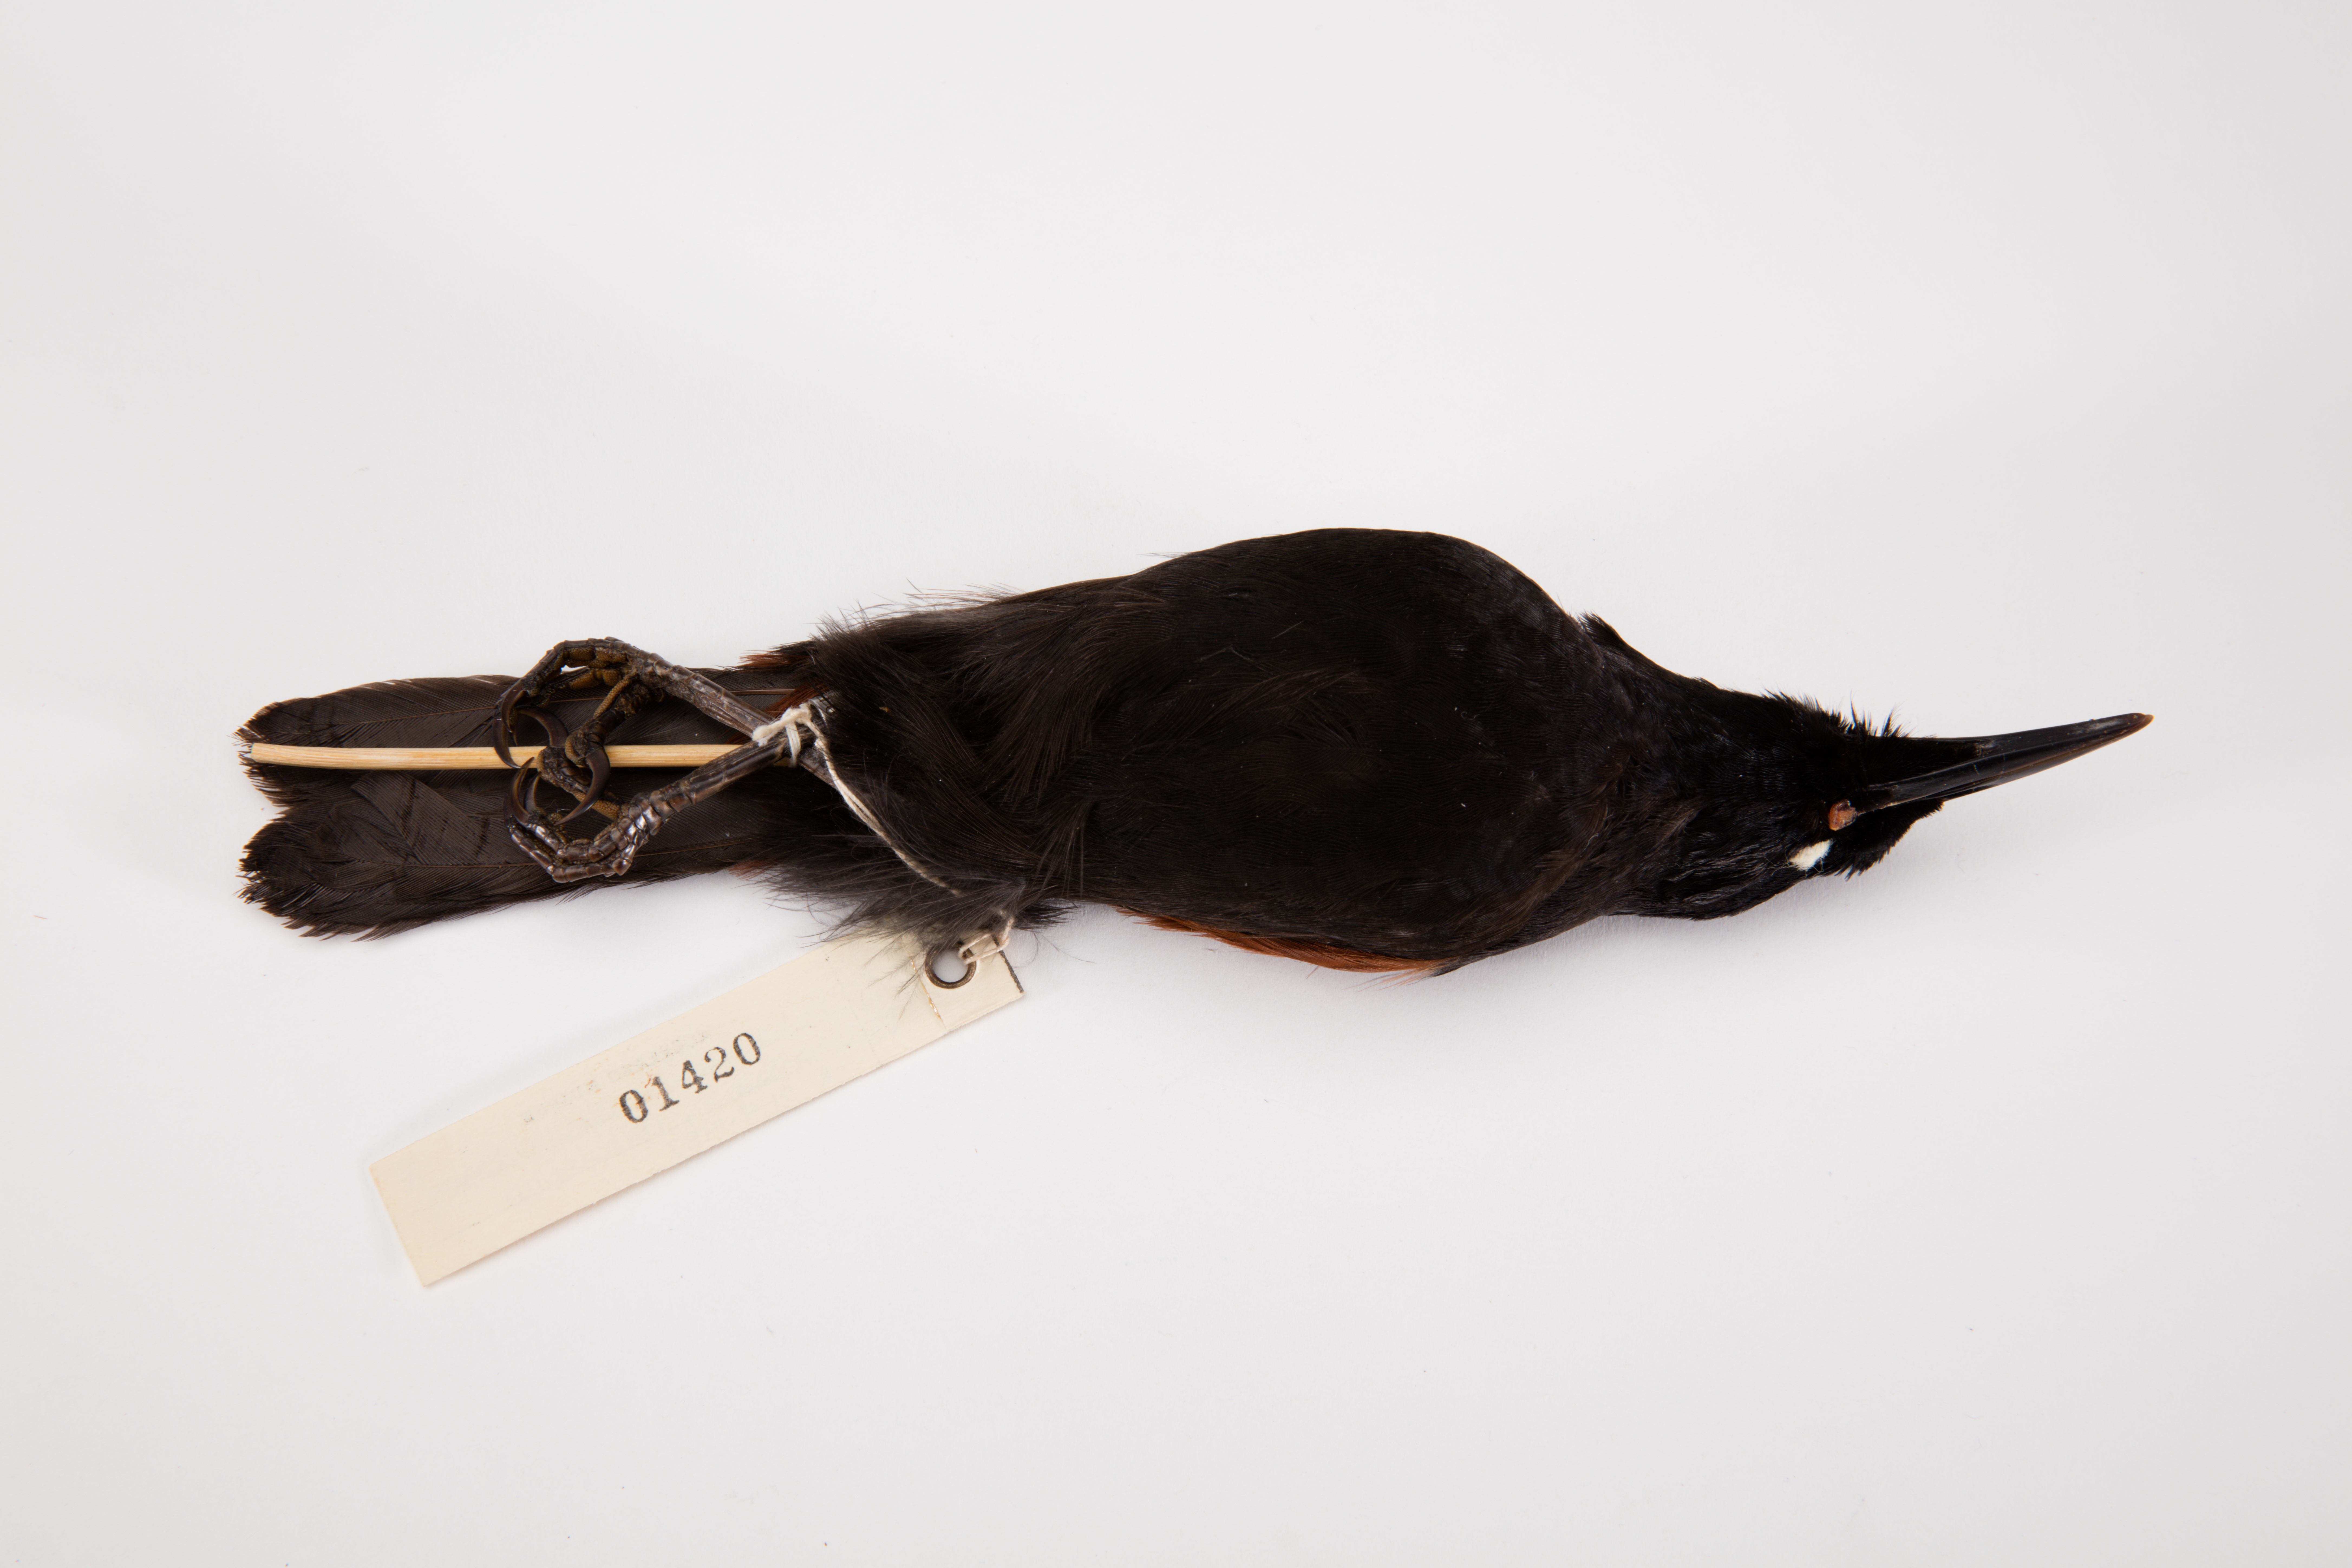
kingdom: Animalia
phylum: Chordata
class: Aves
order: Passeriformes
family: Callaeatidae
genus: Philesturnus
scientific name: Philesturnus carunculatus
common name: South island saddleback
